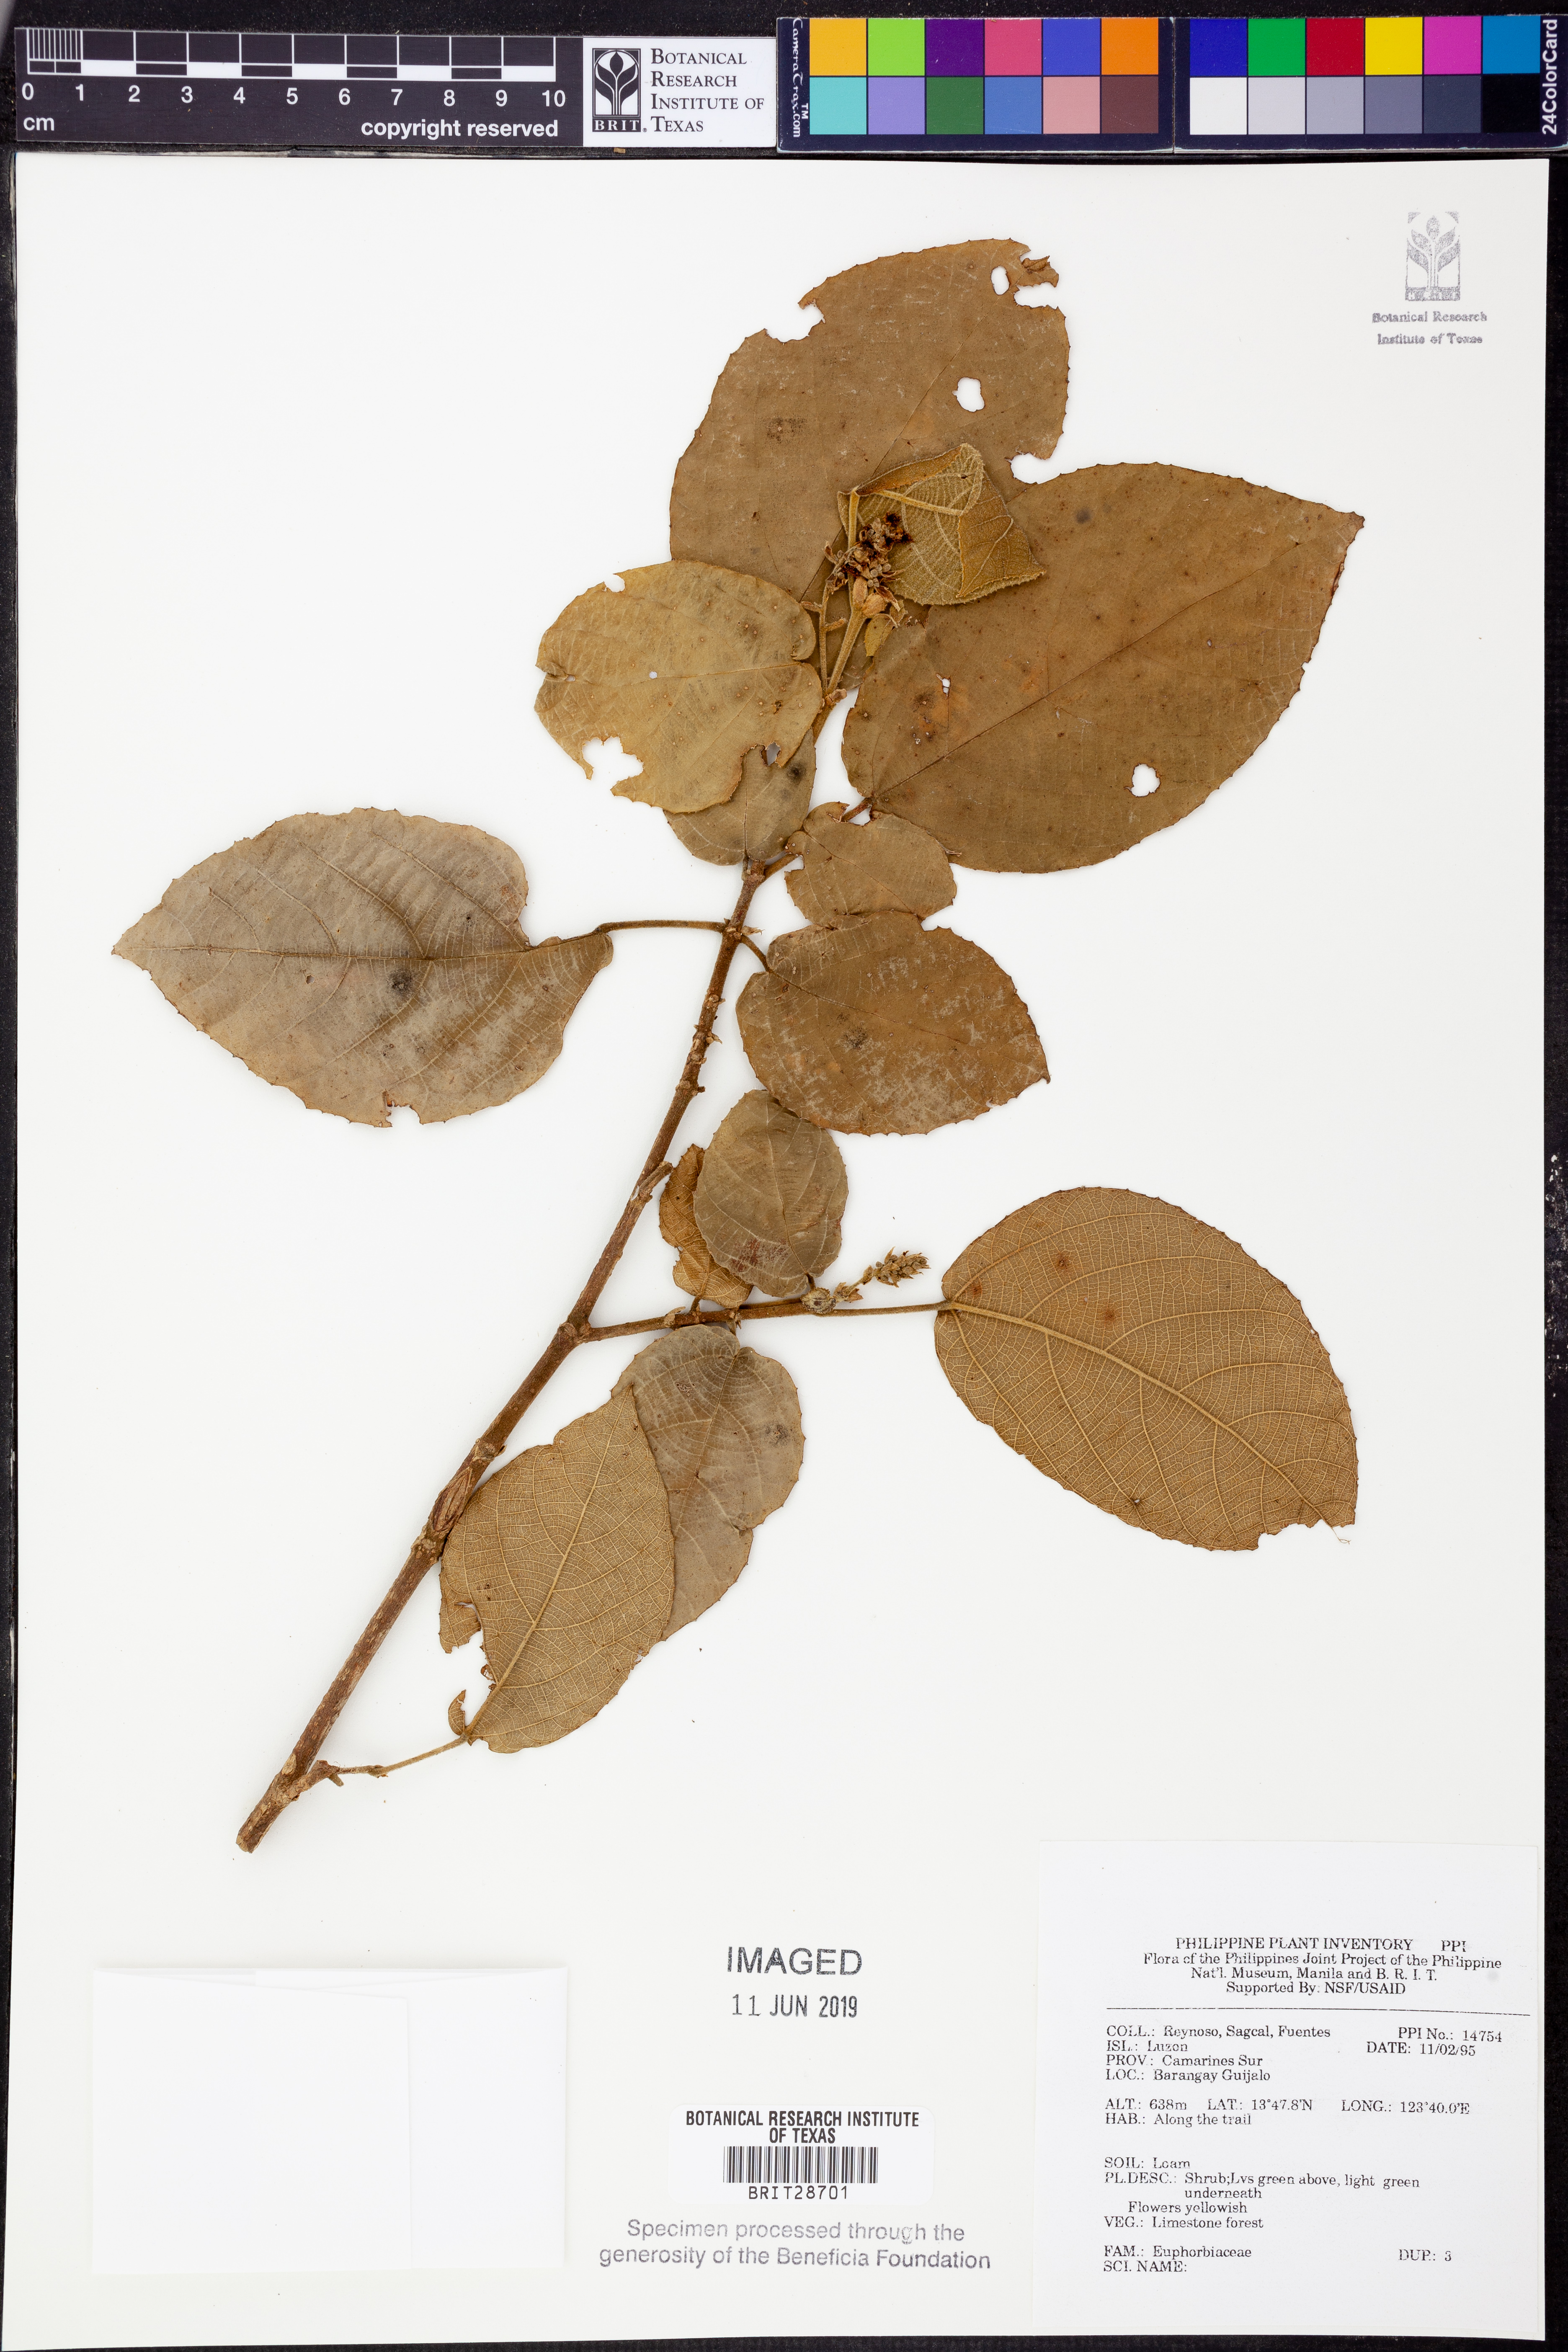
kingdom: Plantae
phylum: Tracheophyta
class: Magnoliopsida
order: Malpighiales
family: Euphorbiaceae
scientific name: Euphorbiaceae
